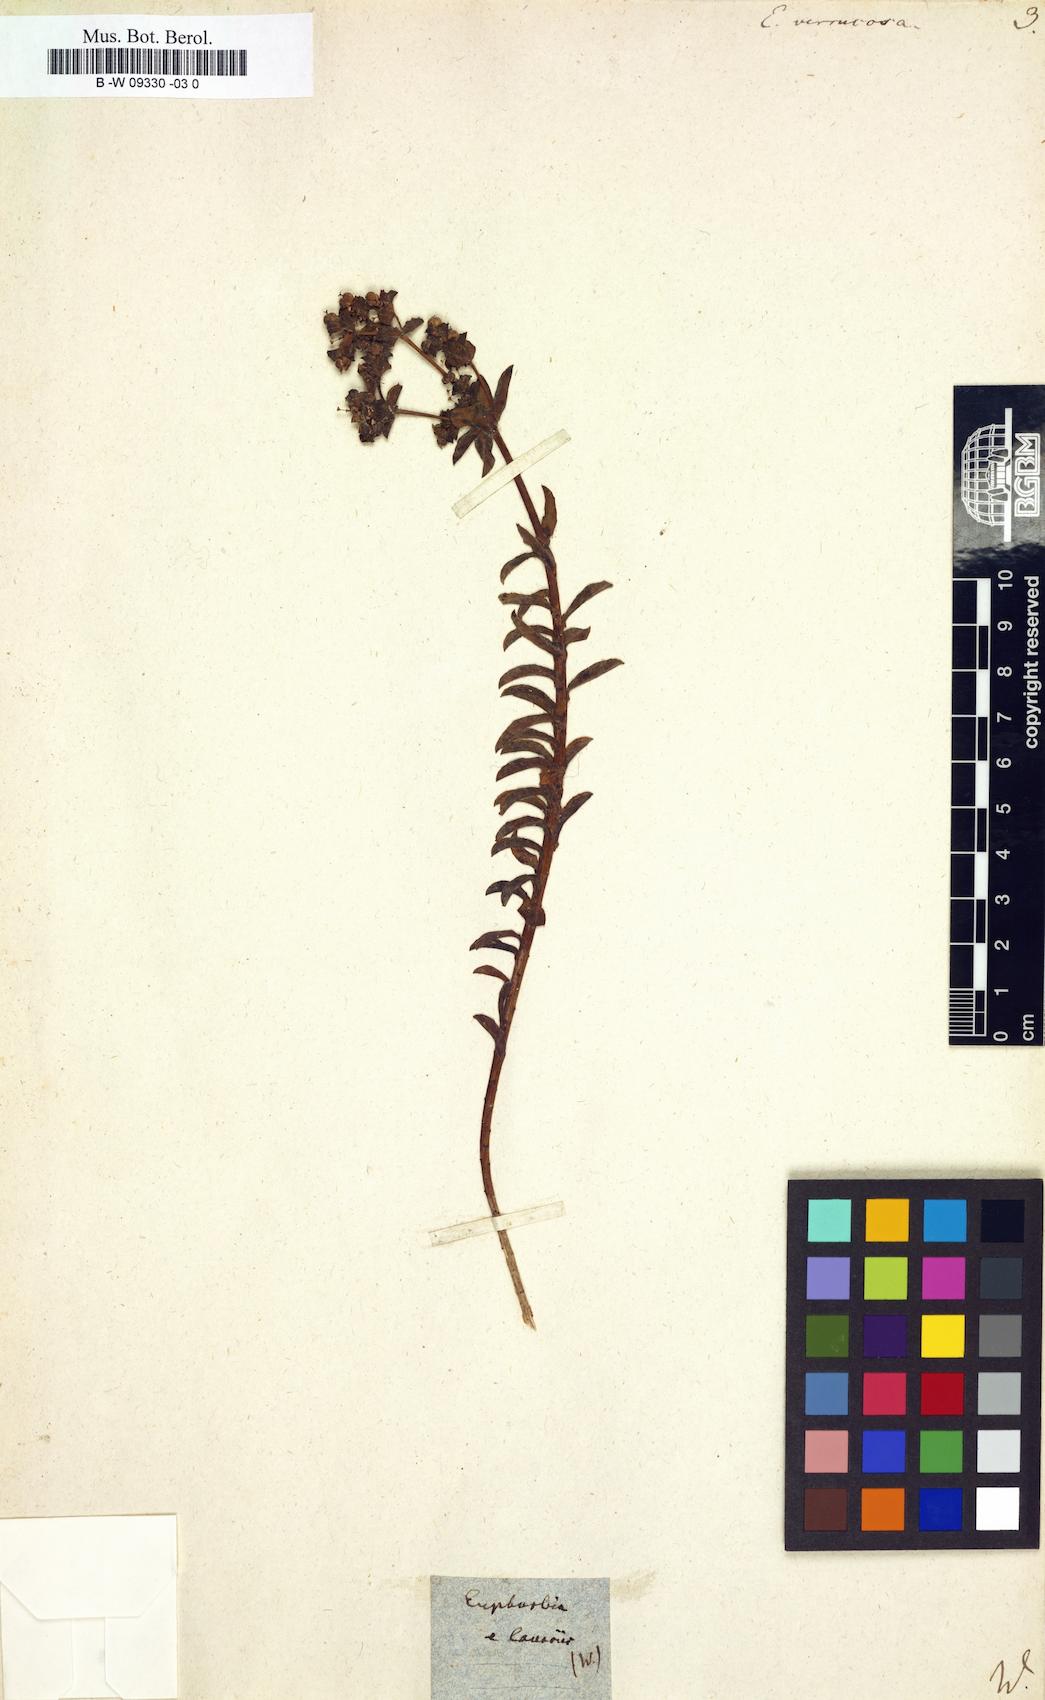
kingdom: Plantae
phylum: Tracheophyta
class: Magnoliopsida
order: Malpighiales
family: Euphorbiaceae
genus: Euphorbia
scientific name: Euphorbia verrucosa
